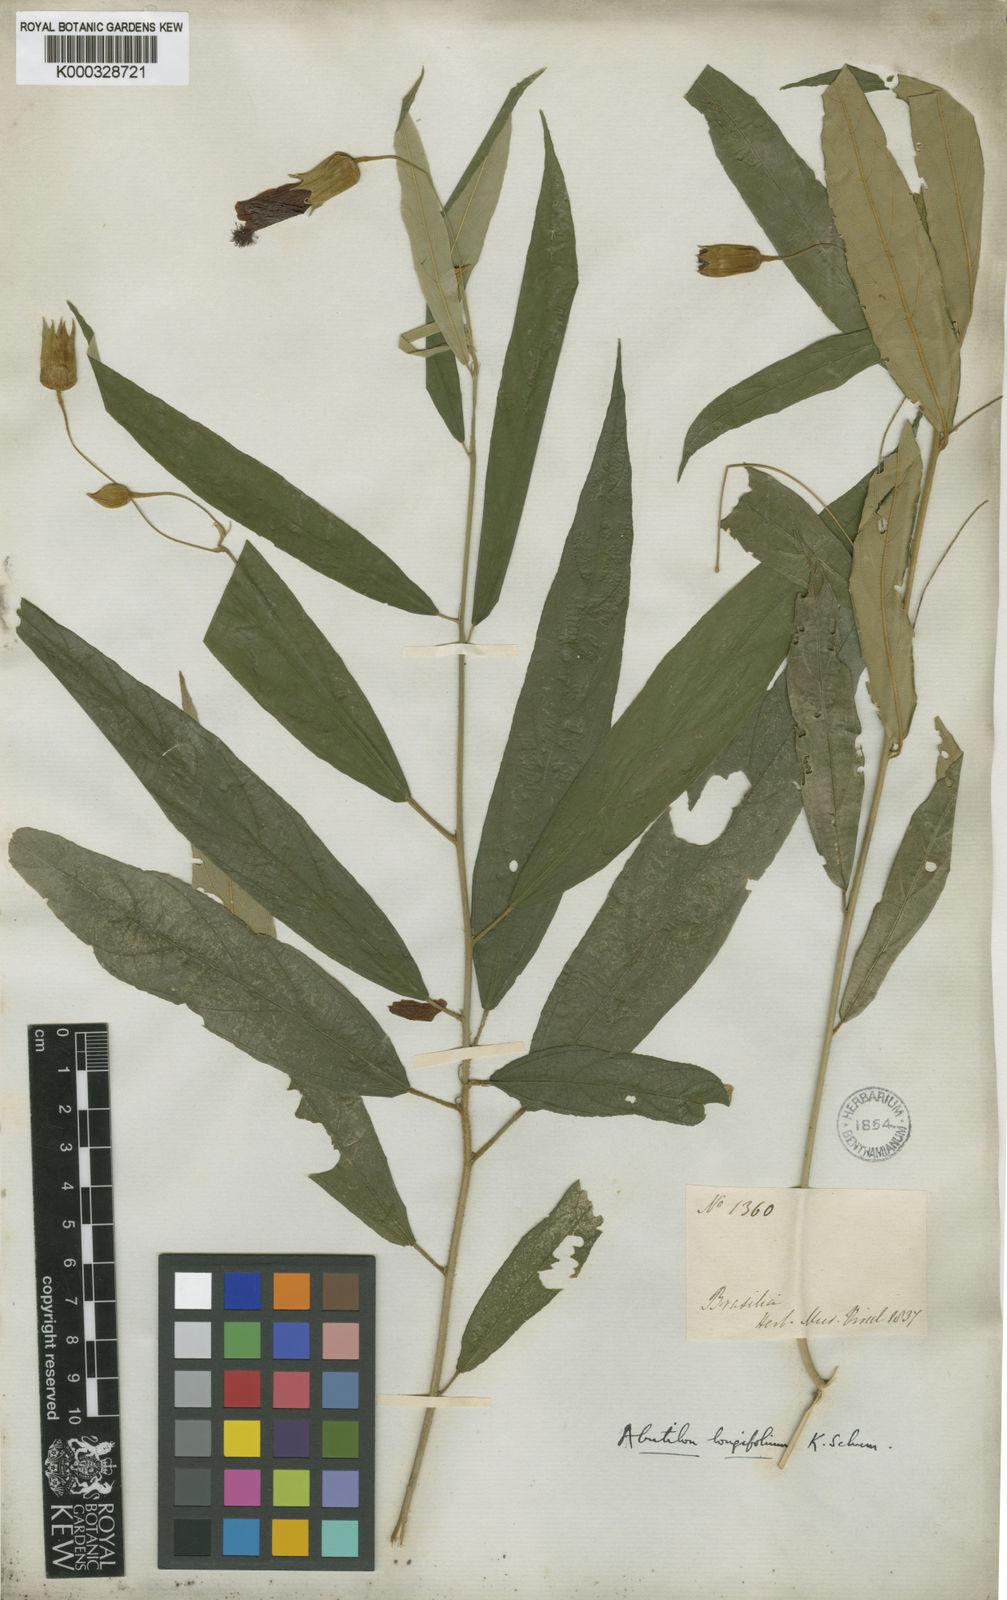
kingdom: Plantae
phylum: Tracheophyta
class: Magnoliopsida
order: Malvales
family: Malvaceae
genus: Callianthe
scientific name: Callianthe longifolia
